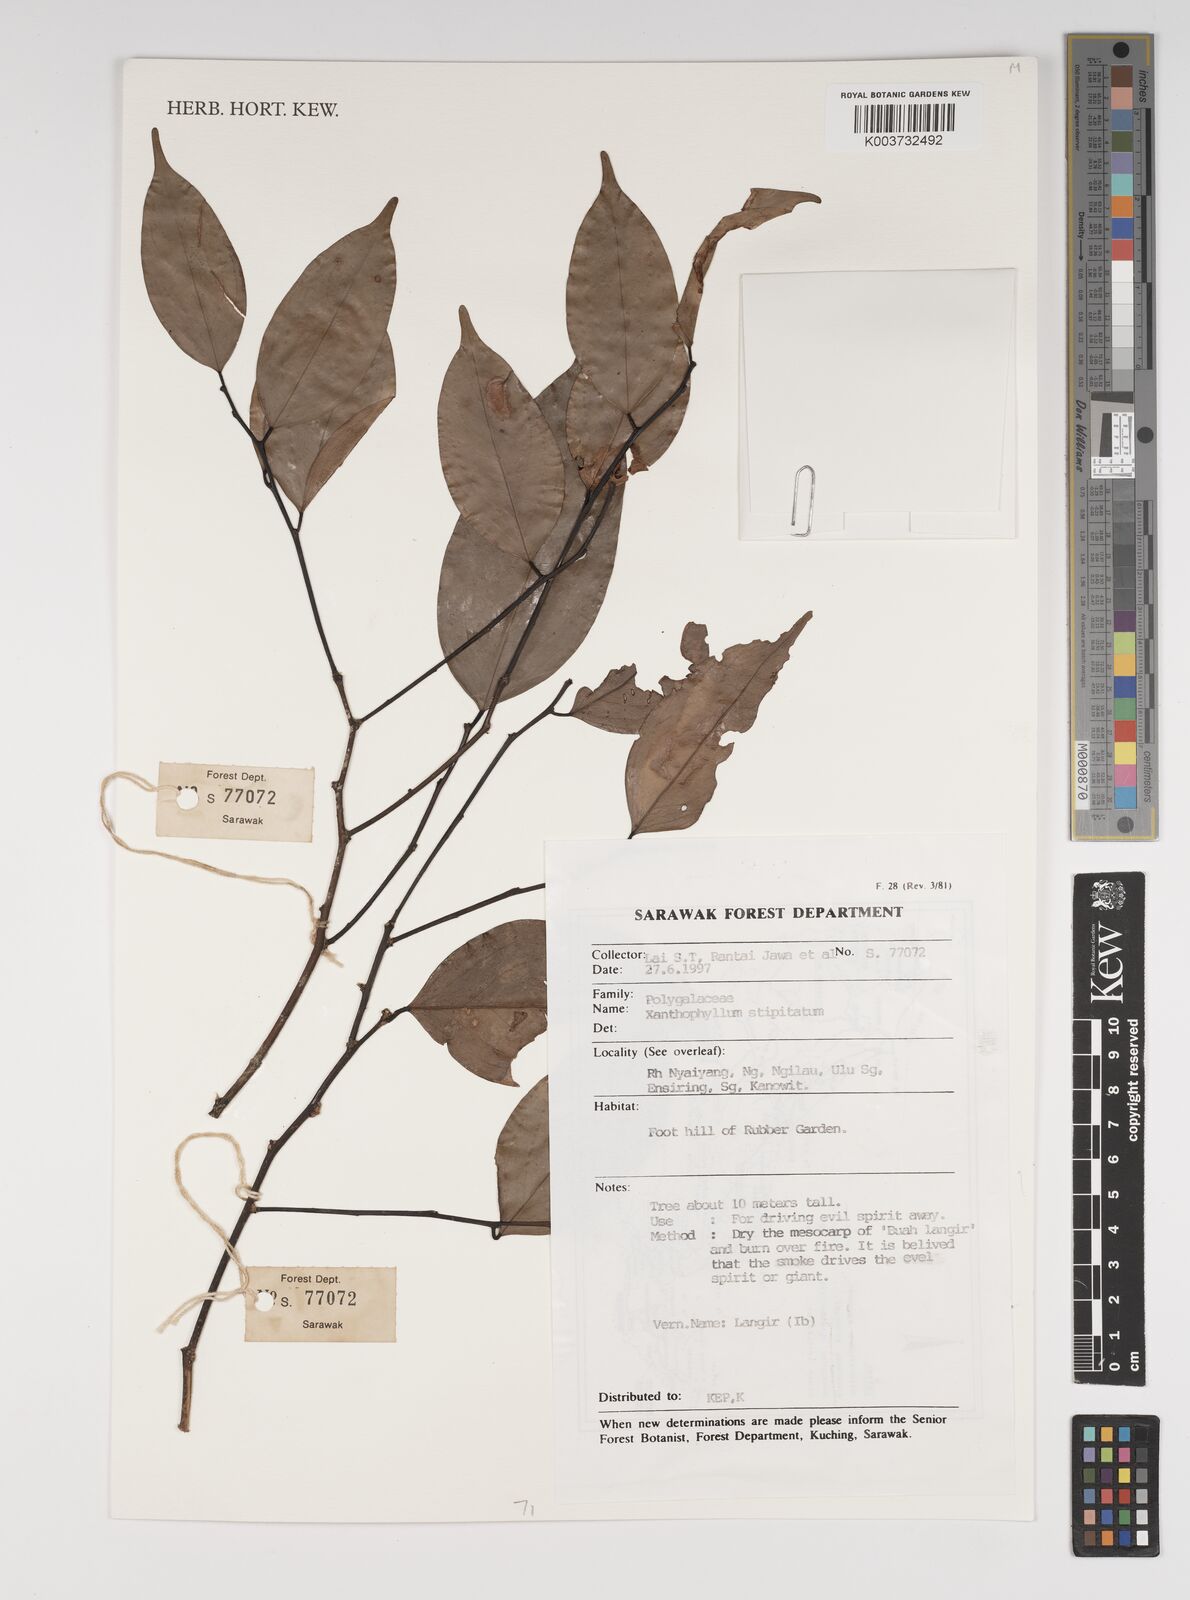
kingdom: Plantae
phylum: Tracheophyta
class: Magnoliopsida
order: Fabales
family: Polygalaceae
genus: Xanthophyllum
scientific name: Xanthophyllum stipitatum
